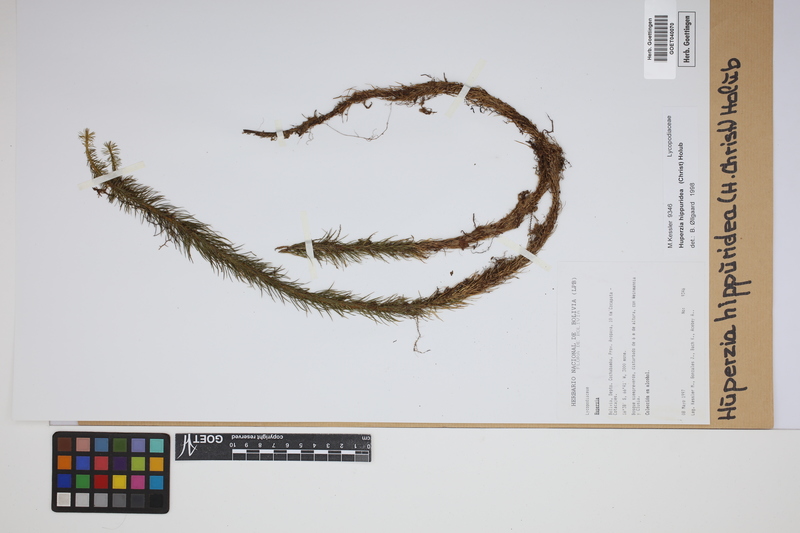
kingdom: Plantae
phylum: Tracheophyta
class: Lycopodiopsida
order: Lycopodiales
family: Lycopodiaceae
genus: Phlegmariurus
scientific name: Phlegmariurus hippurideus
